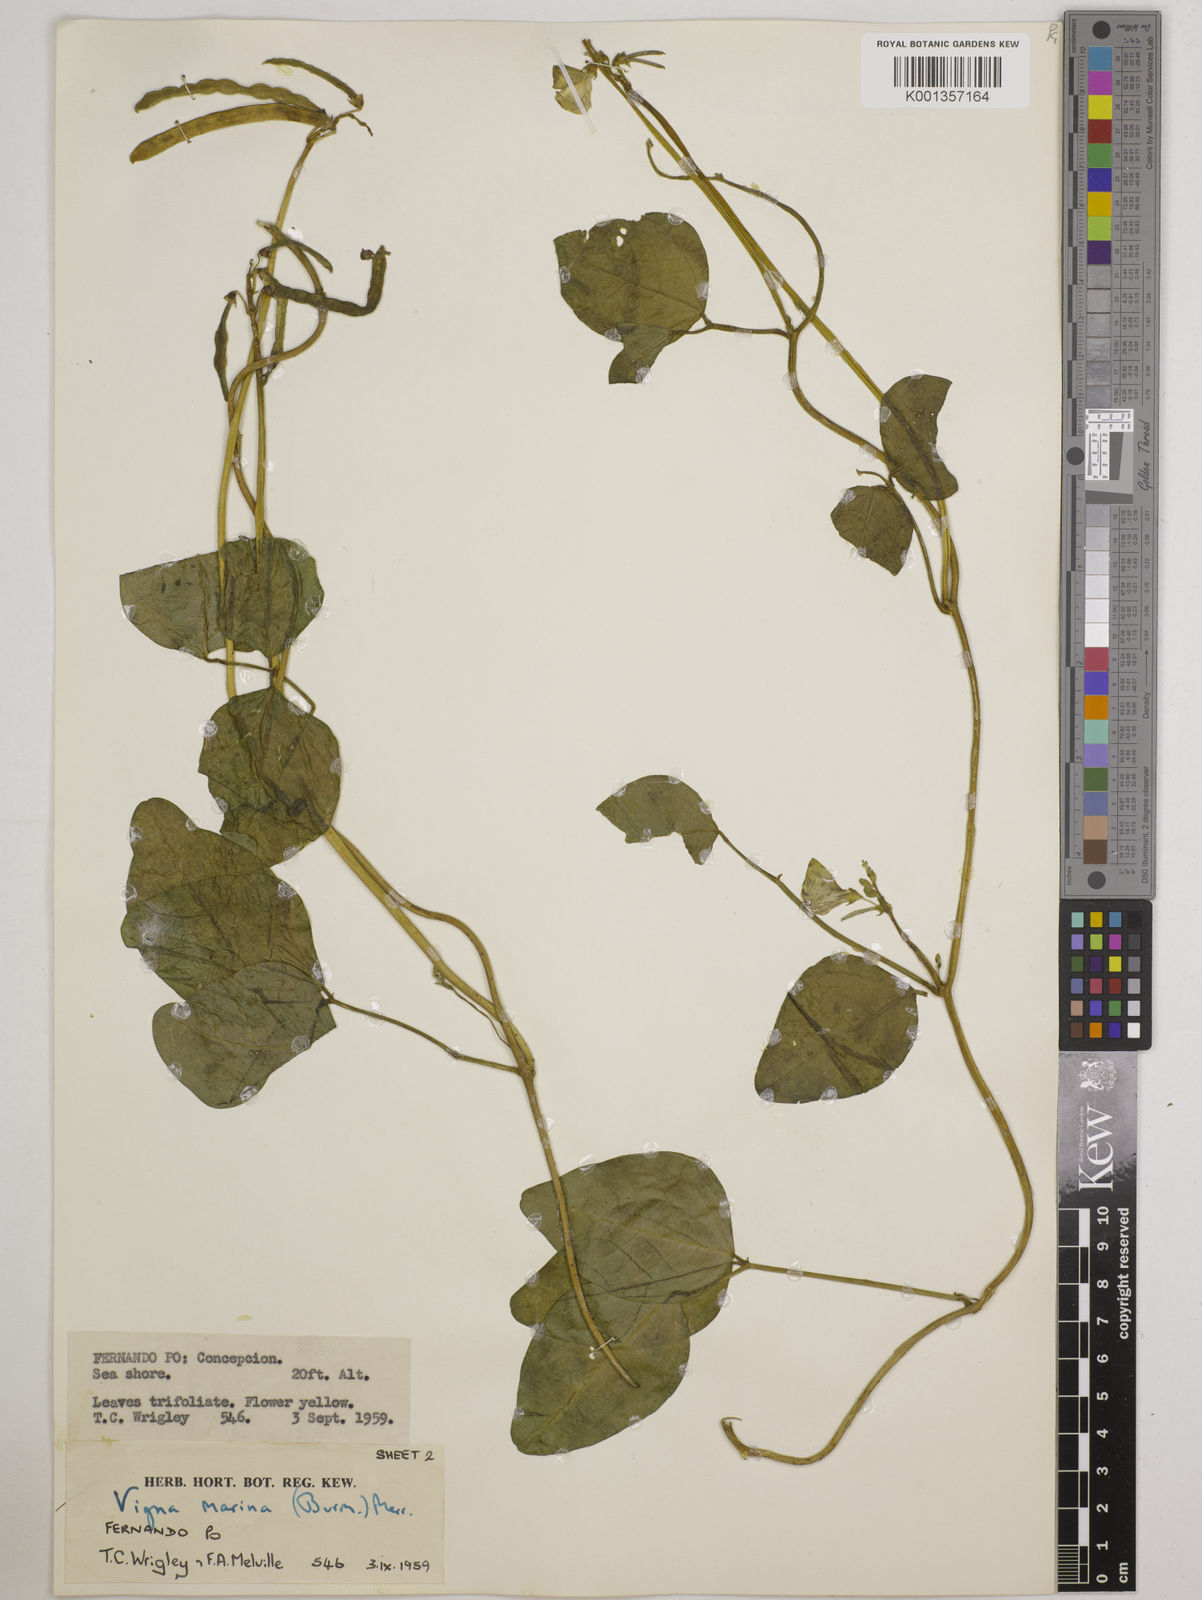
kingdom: Plantae
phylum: Tracheophyta
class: Magnoliopsida
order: Fabales
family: Fabaceae
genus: Vigna
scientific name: Vigna marina
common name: Dune-bean
